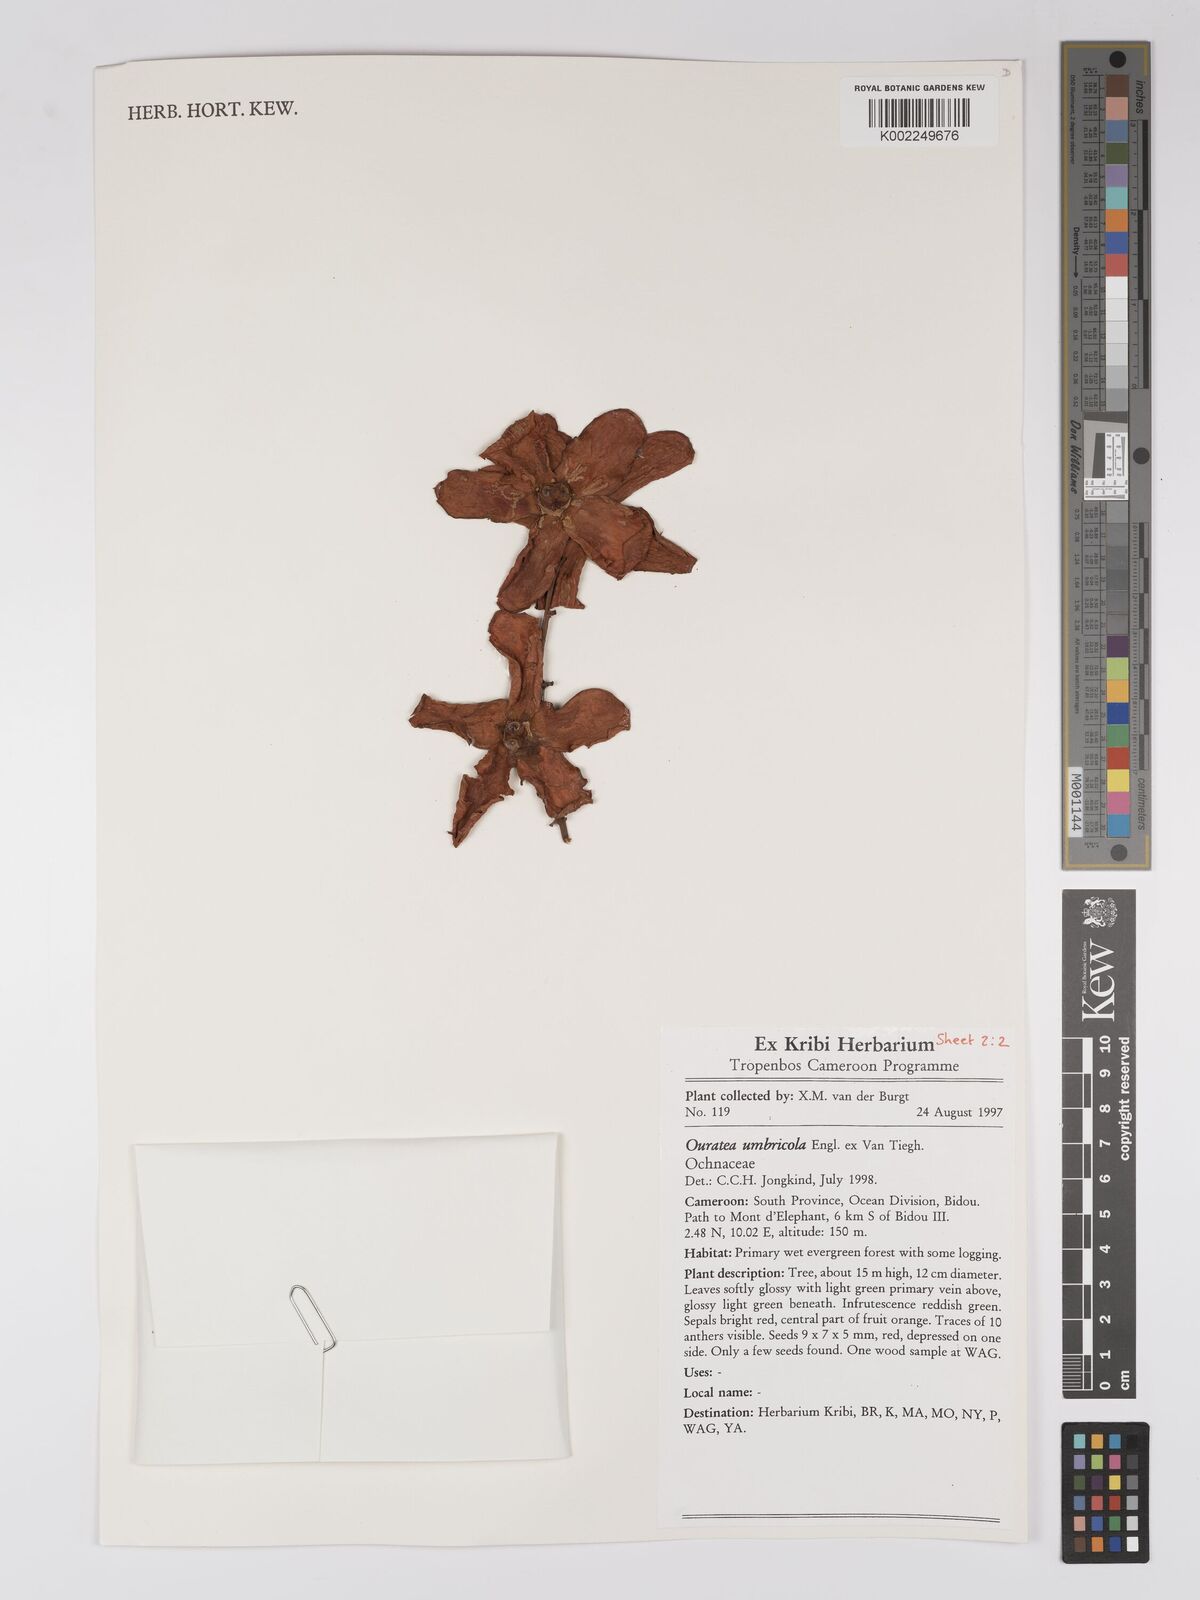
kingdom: Plantae
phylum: Tracheophyta
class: Magnoliopsida
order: Malpighiales
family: Ochnaceae
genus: Campylospermum
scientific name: Campylospermum umbricola
